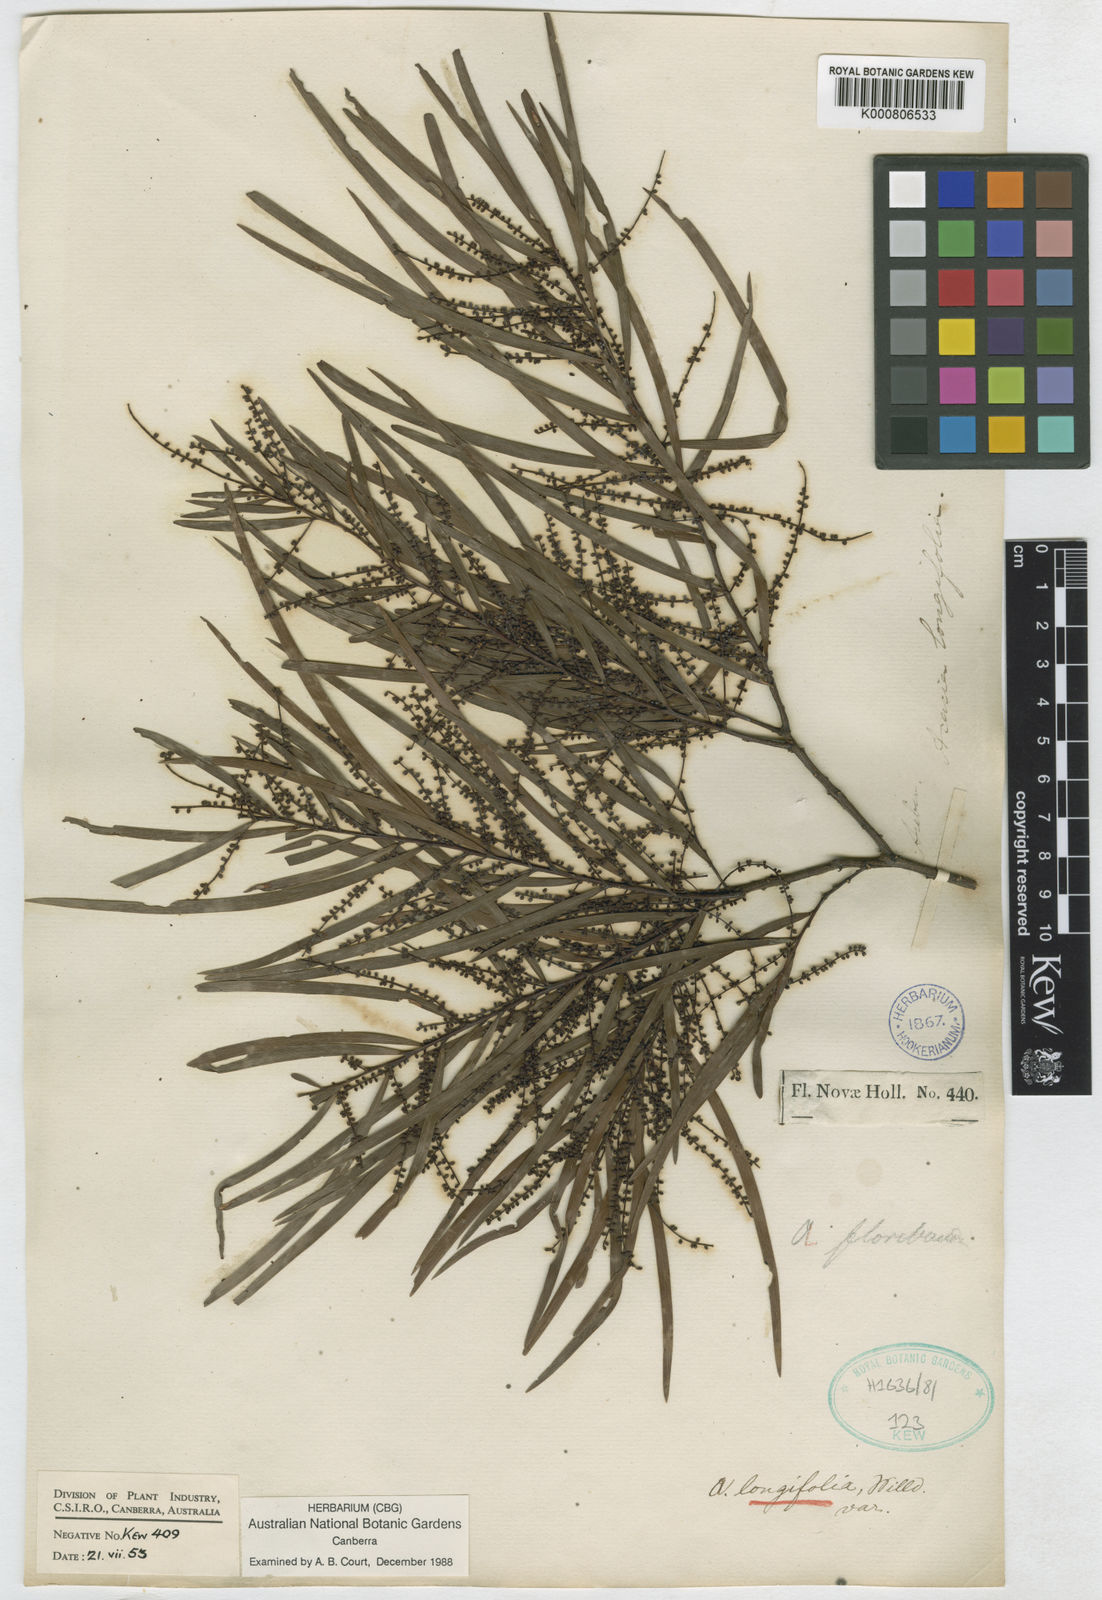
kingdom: Plantae
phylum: Tracheophyta
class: Magnoliopsida
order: Fabales
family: Fabaceae
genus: Acacia
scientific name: Acacia floribunda
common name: Gossamer wattle
